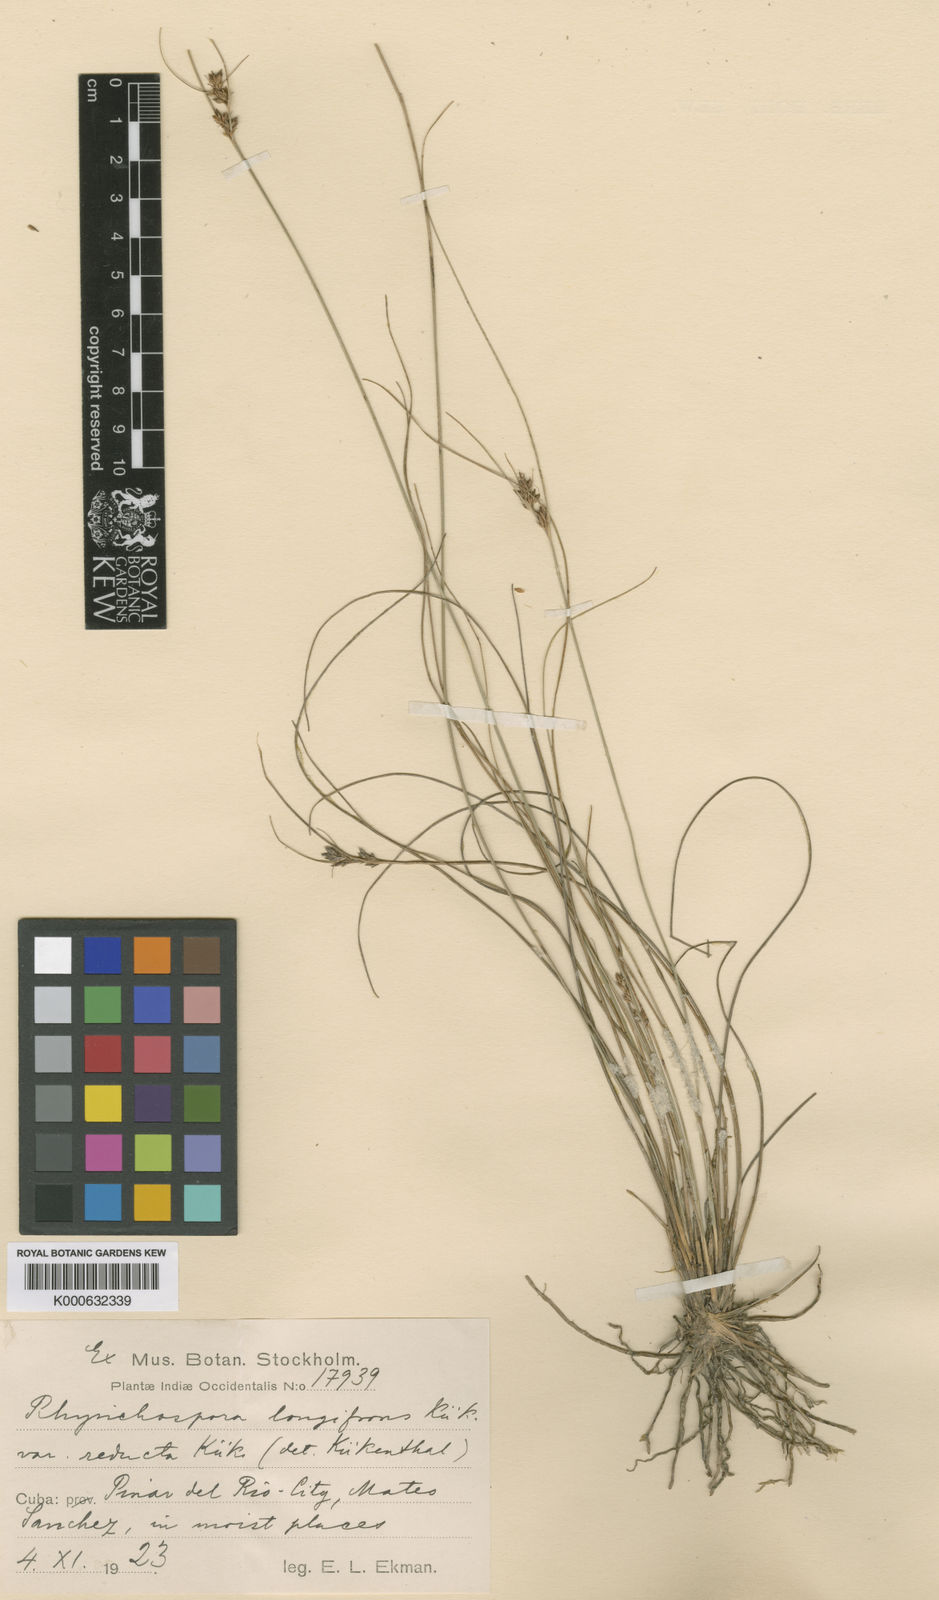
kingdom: Plantae
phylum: Tracheophyta
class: Liliopsida
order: Poales
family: Cyperaceae
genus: Rhynchospora
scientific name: Rhynchospora
